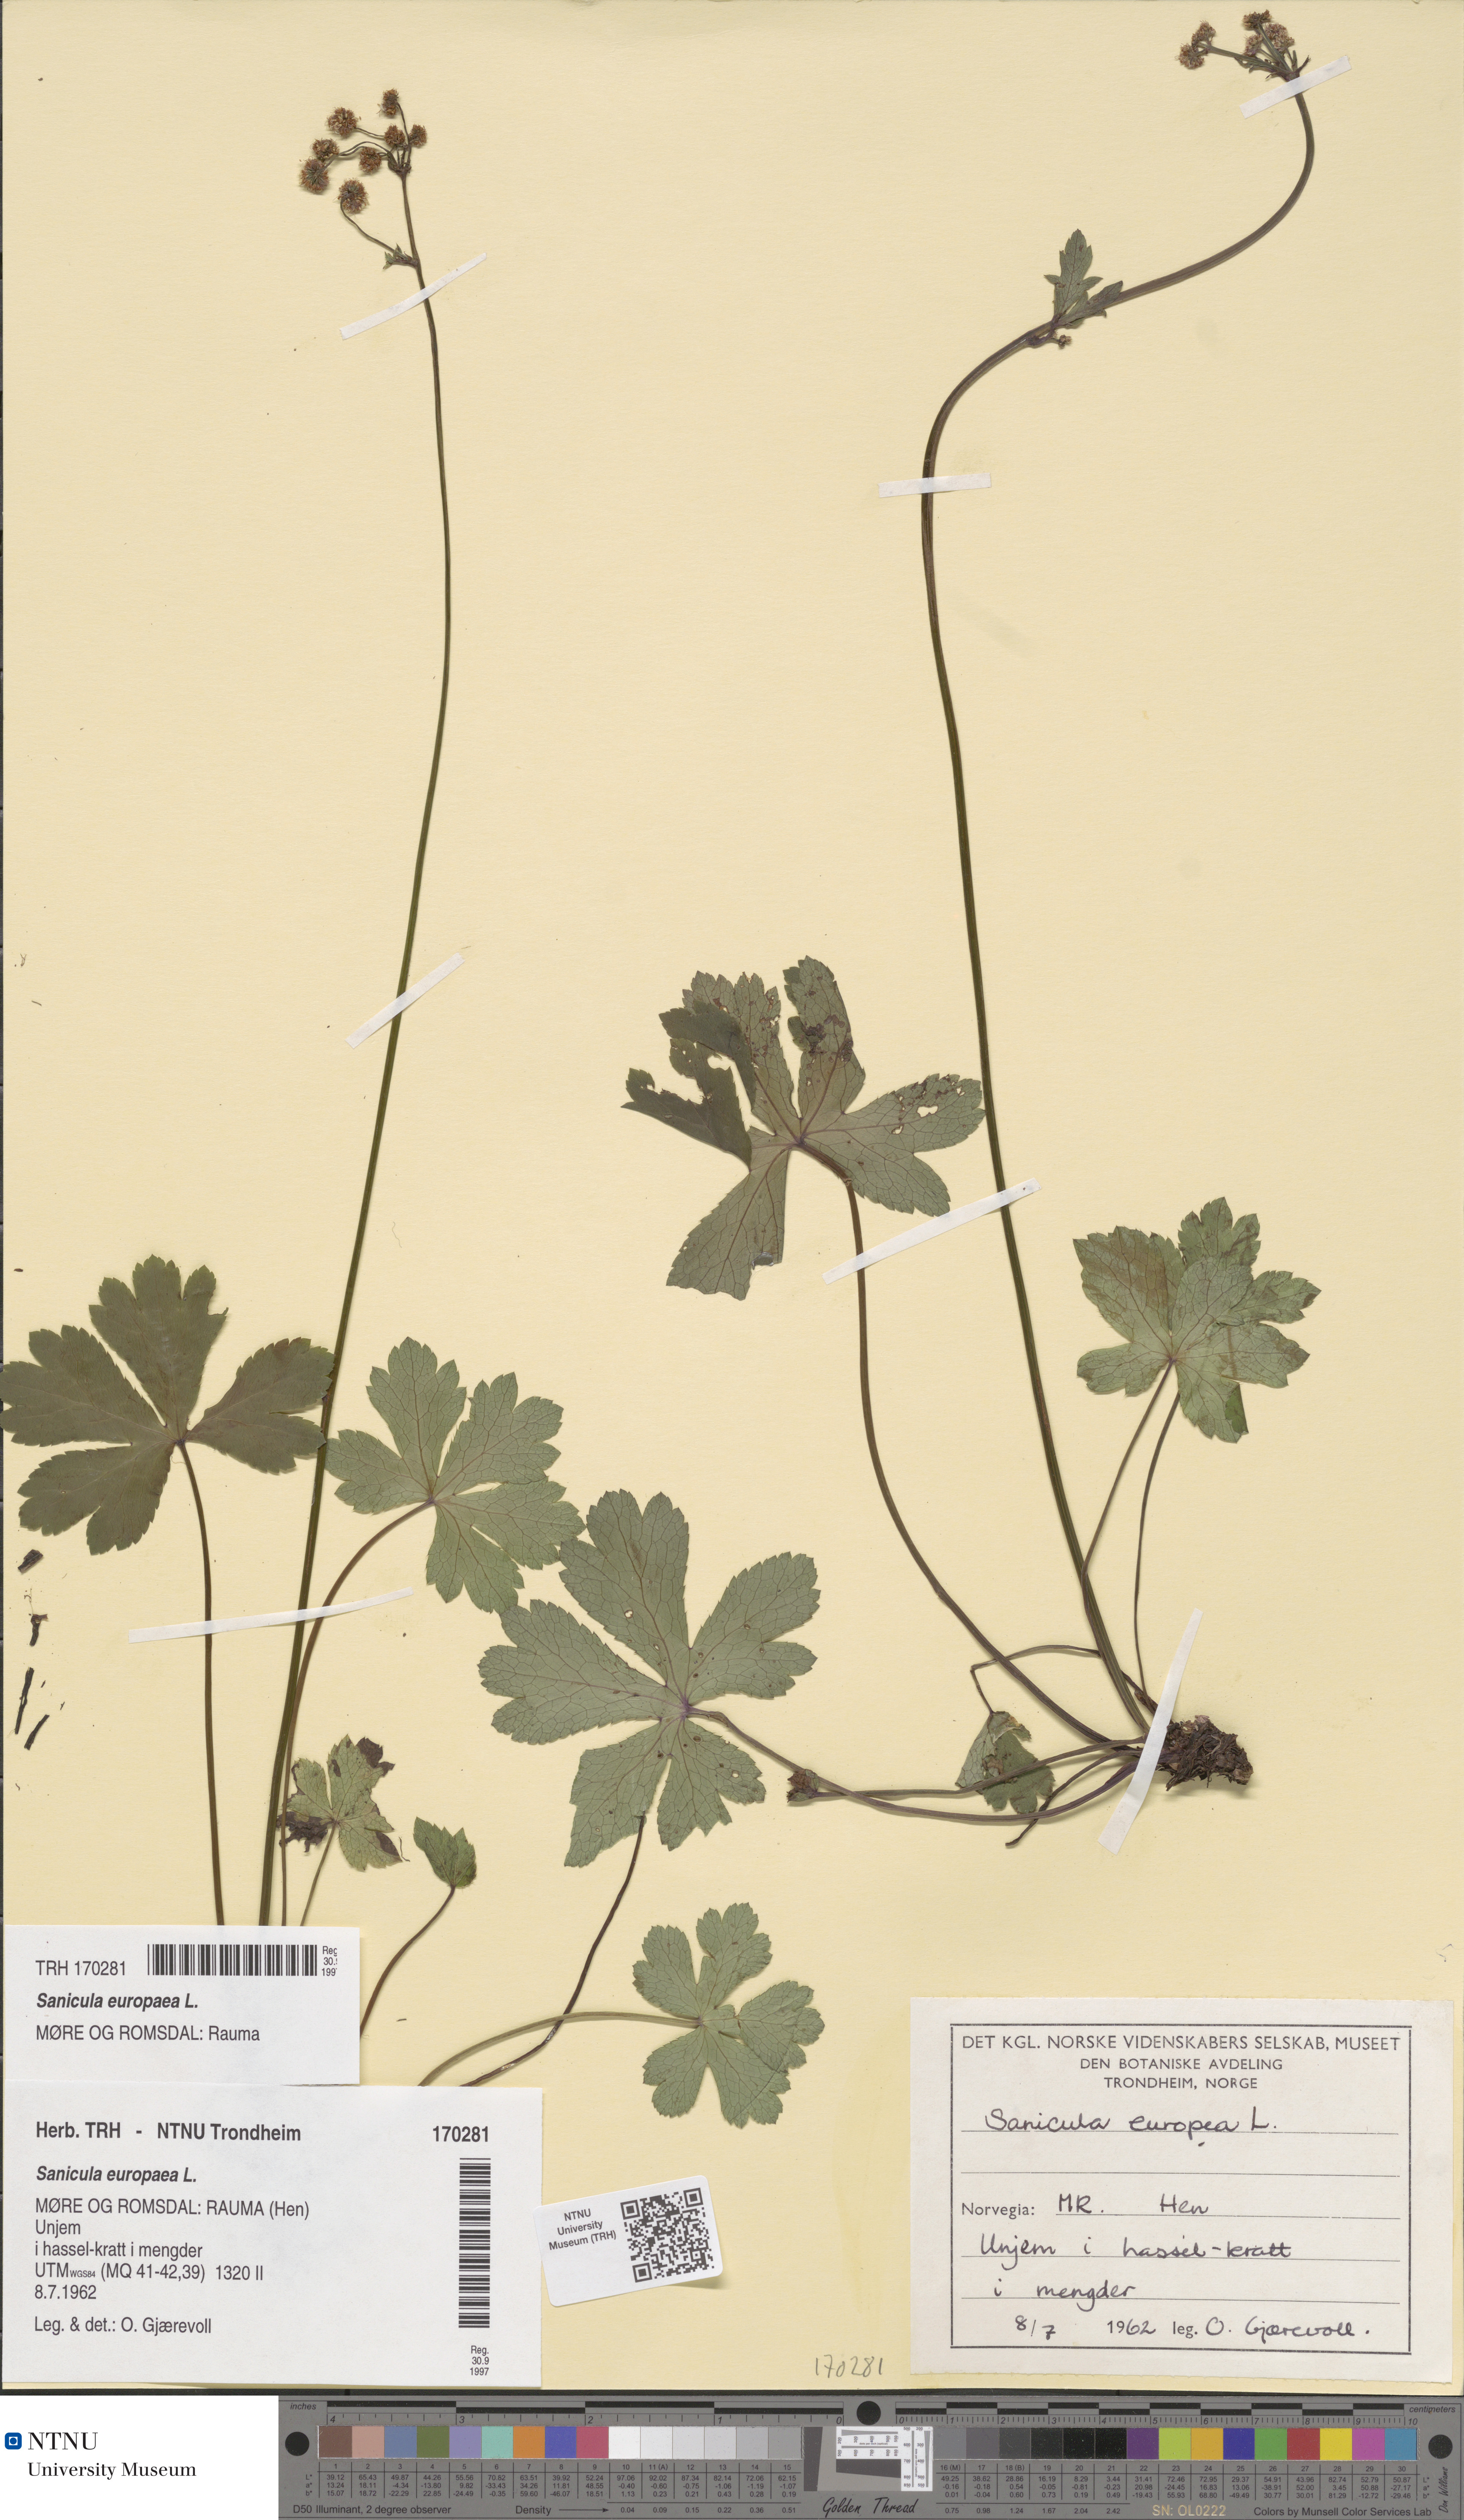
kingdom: Plantae
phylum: Tracheophyta
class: Magnoliopsida
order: Apiales
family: Apiaceae
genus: Sanicula
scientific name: Sanicula europaea
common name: Sanicle
